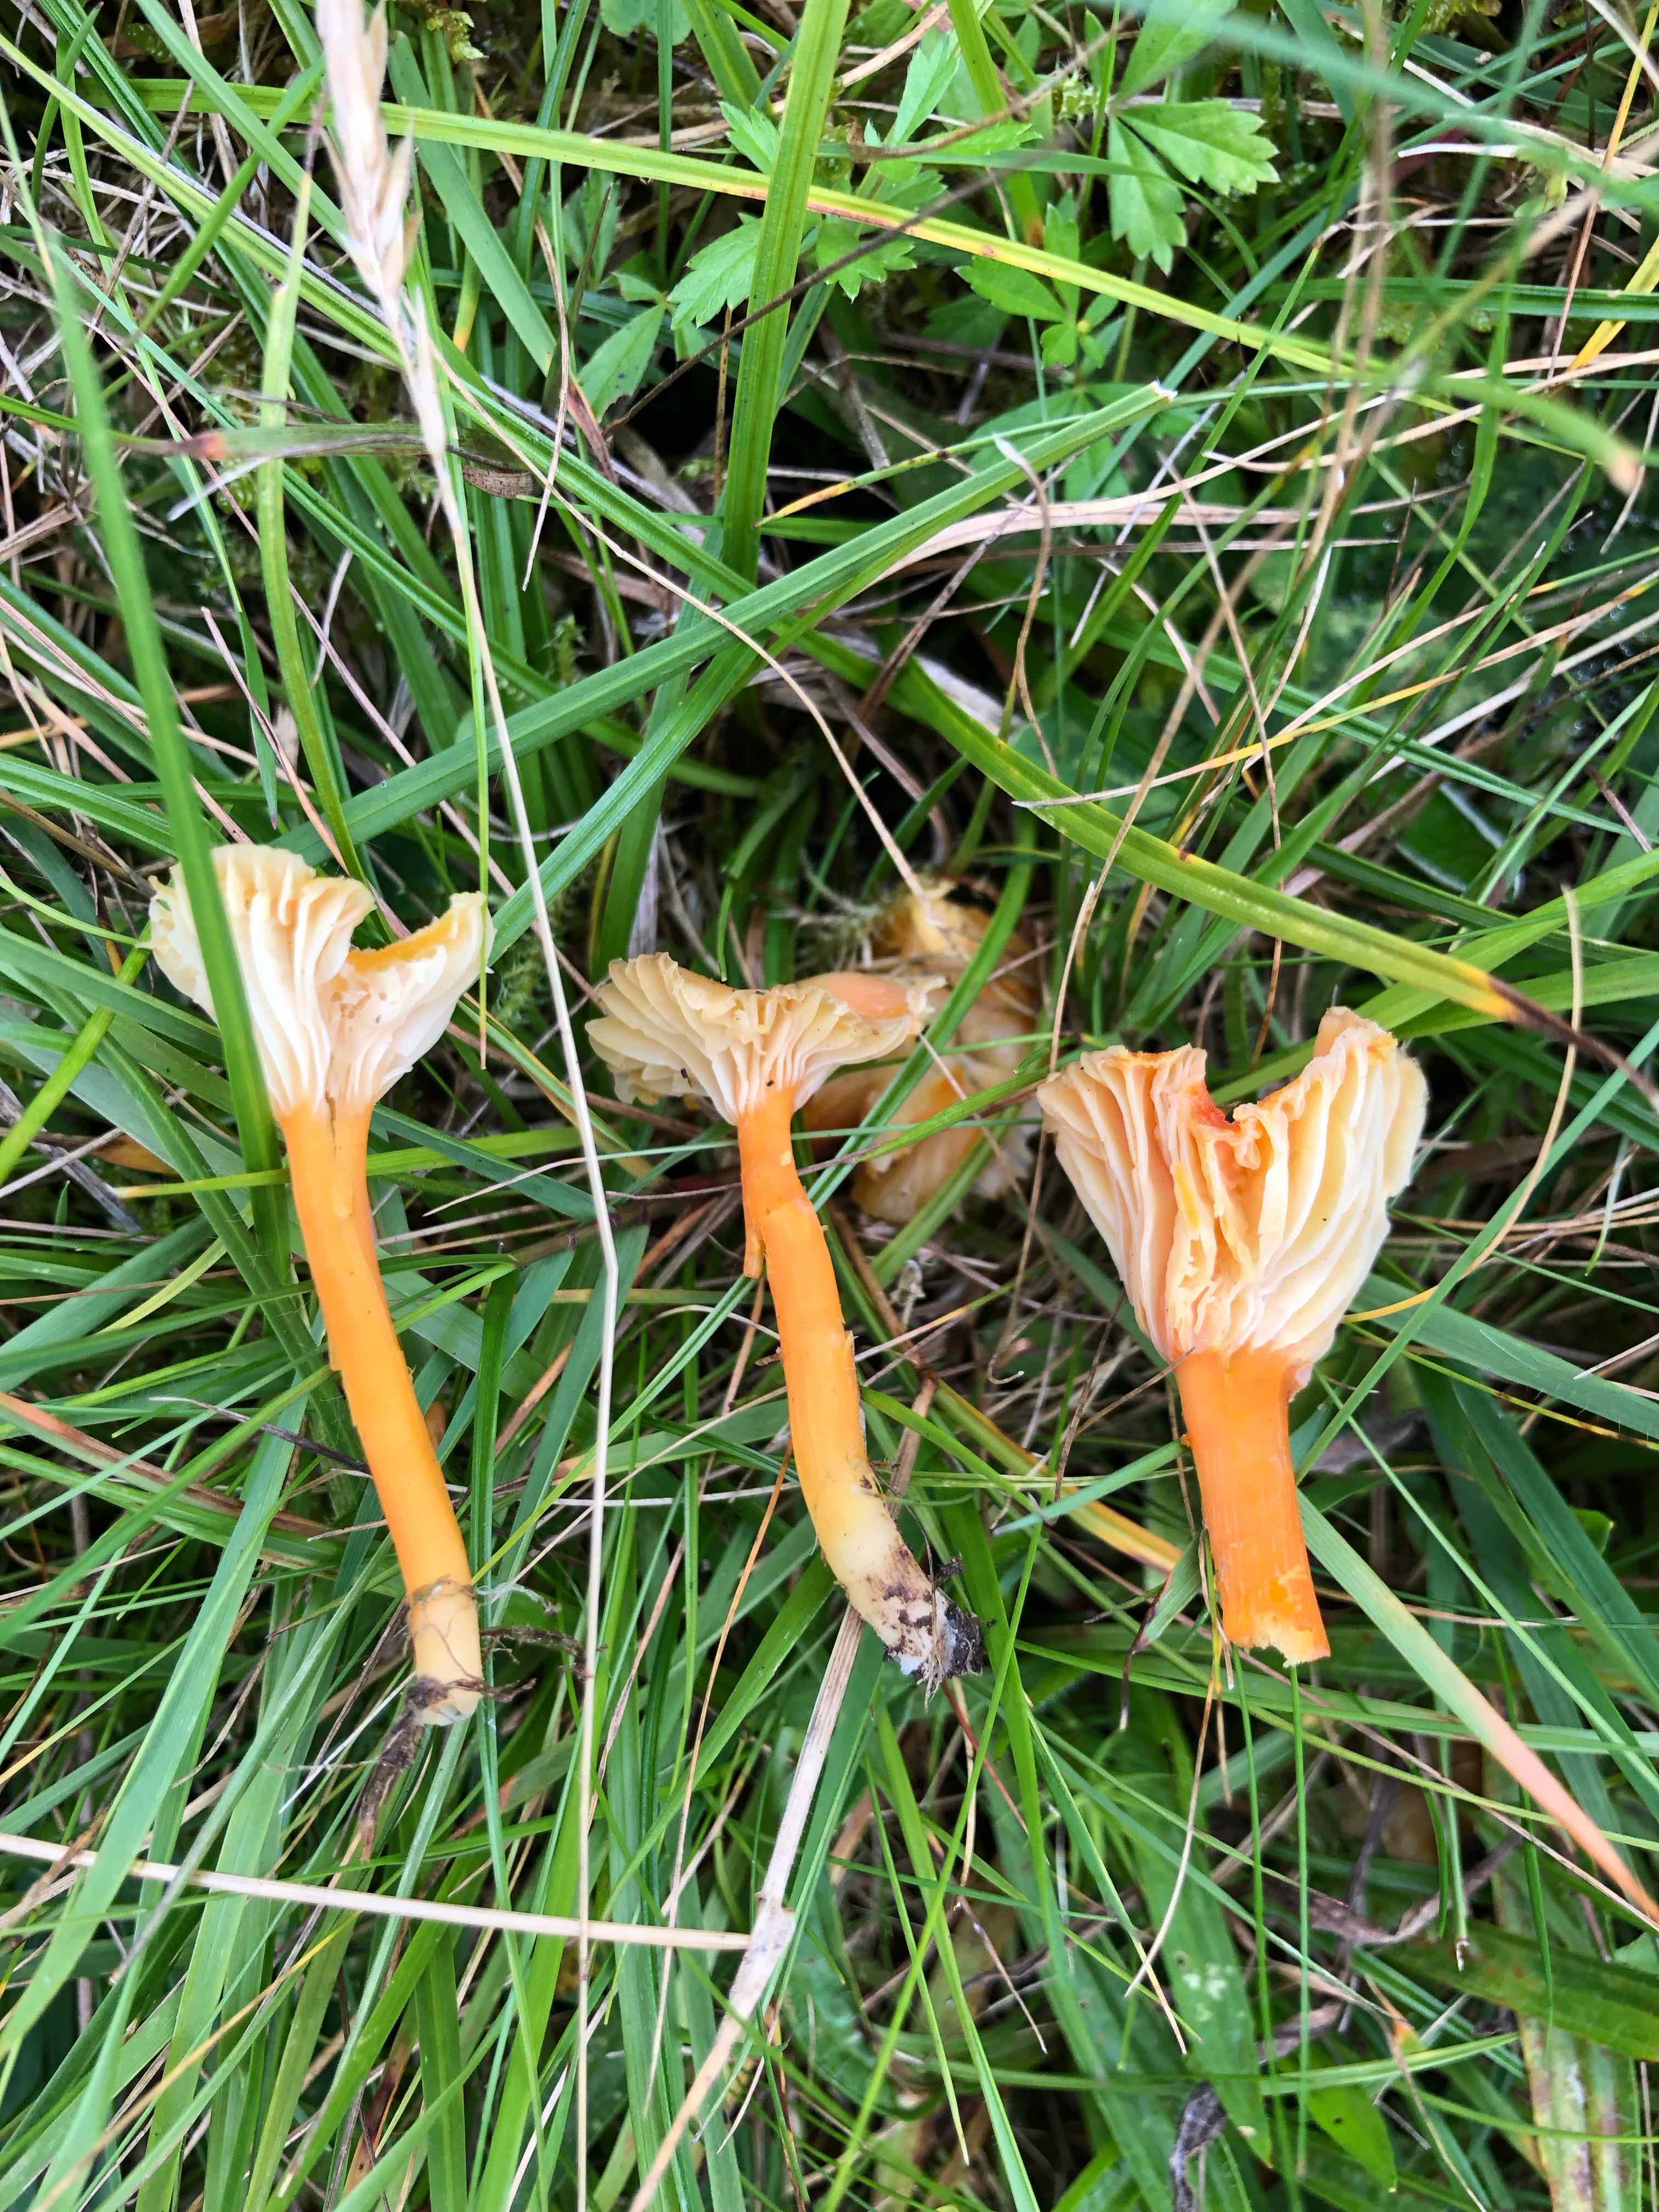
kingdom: Fungi
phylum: Basidiomycota
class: Agaricomycetes
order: Agaricales
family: Hygrophoraceae
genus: Hygrocybe
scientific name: Hygrocybe cantharellus
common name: kantarel-vokshat
